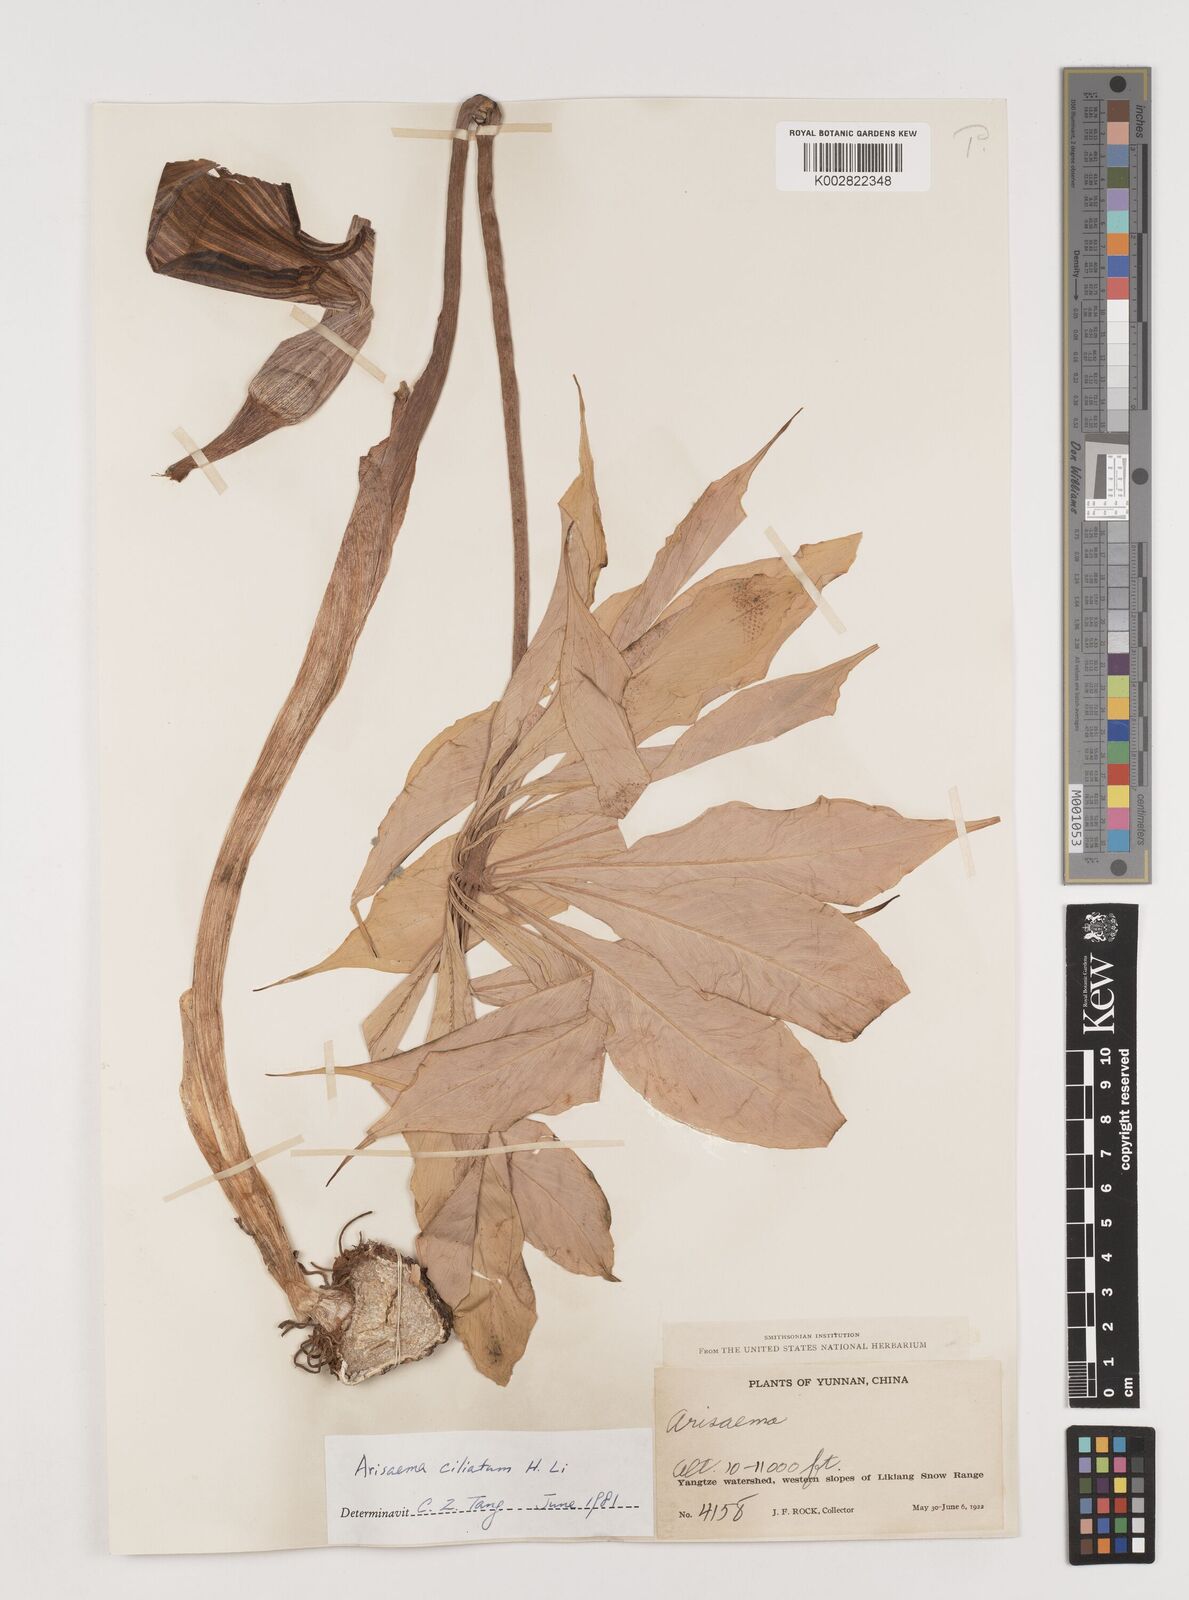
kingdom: Plantae
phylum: Tracheophyta
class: Liliopsida
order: Alismatales
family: Araceae
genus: Arisaema
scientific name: Arisaema ciliatum
